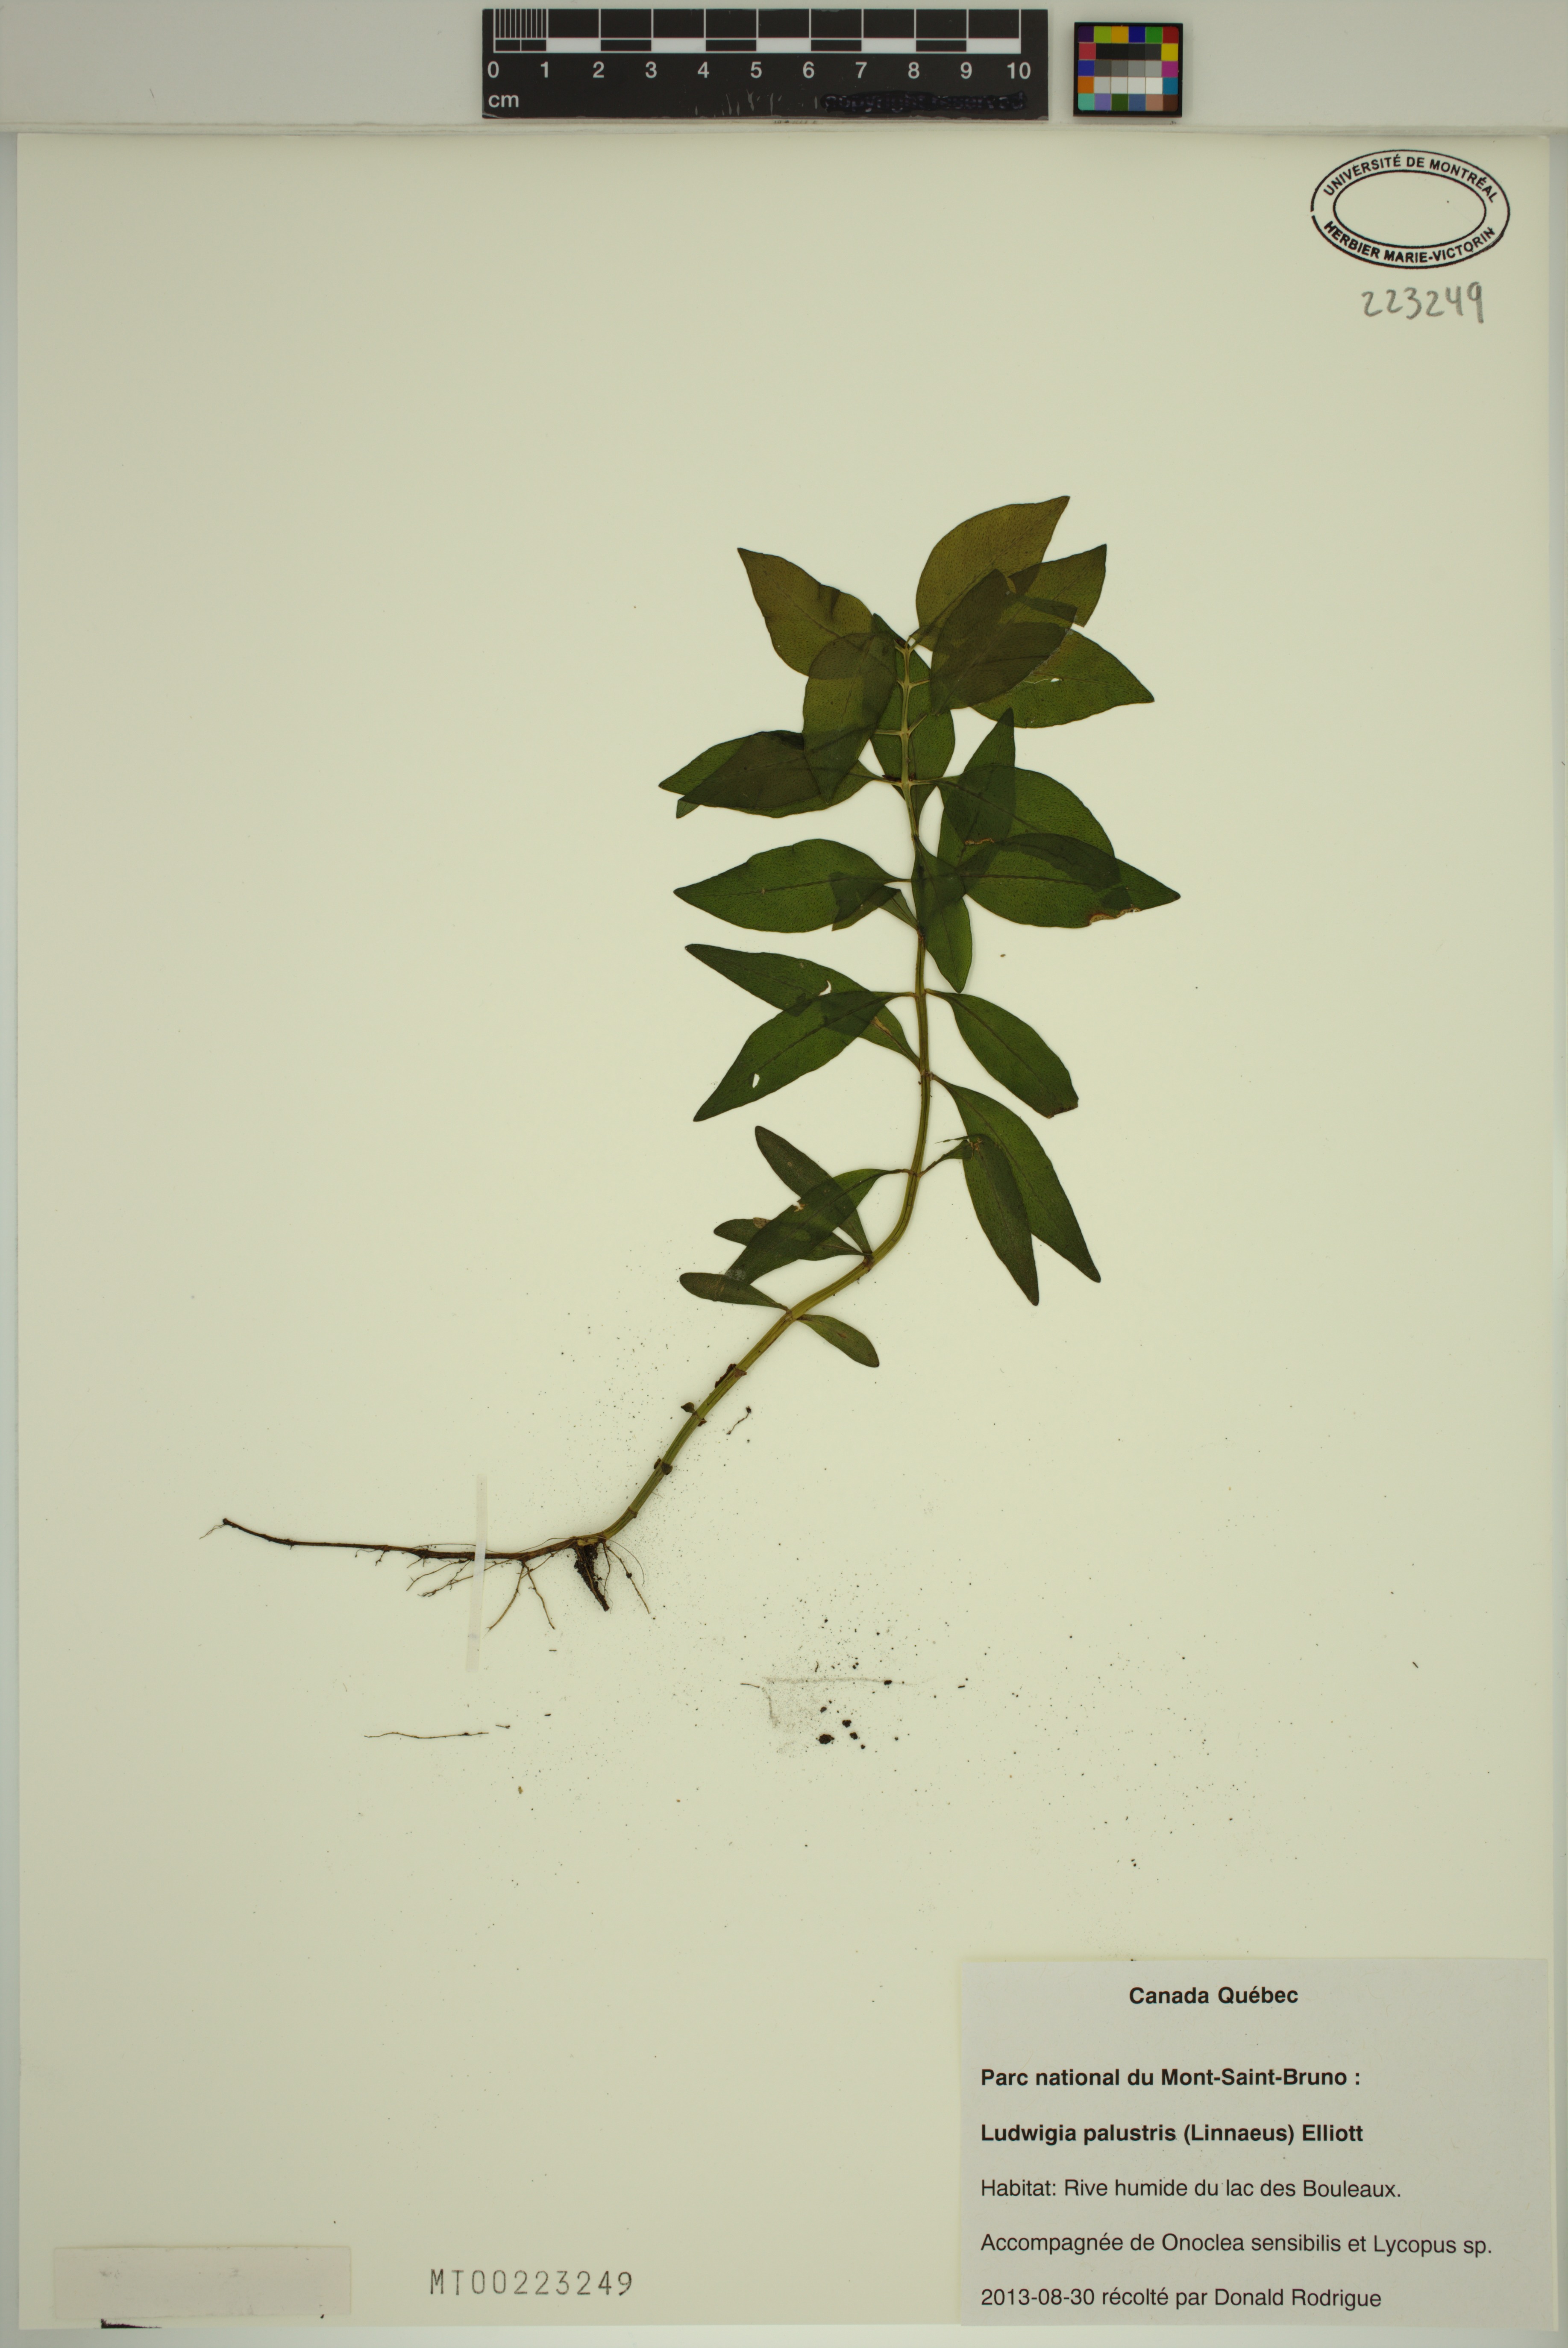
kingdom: Plantae
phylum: Tracheophyta
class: Magnoliopsida
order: Myrtales
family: Onagraceae
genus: Ludwigia
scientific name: Ludwigia palustris
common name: Hampshire-purslane
